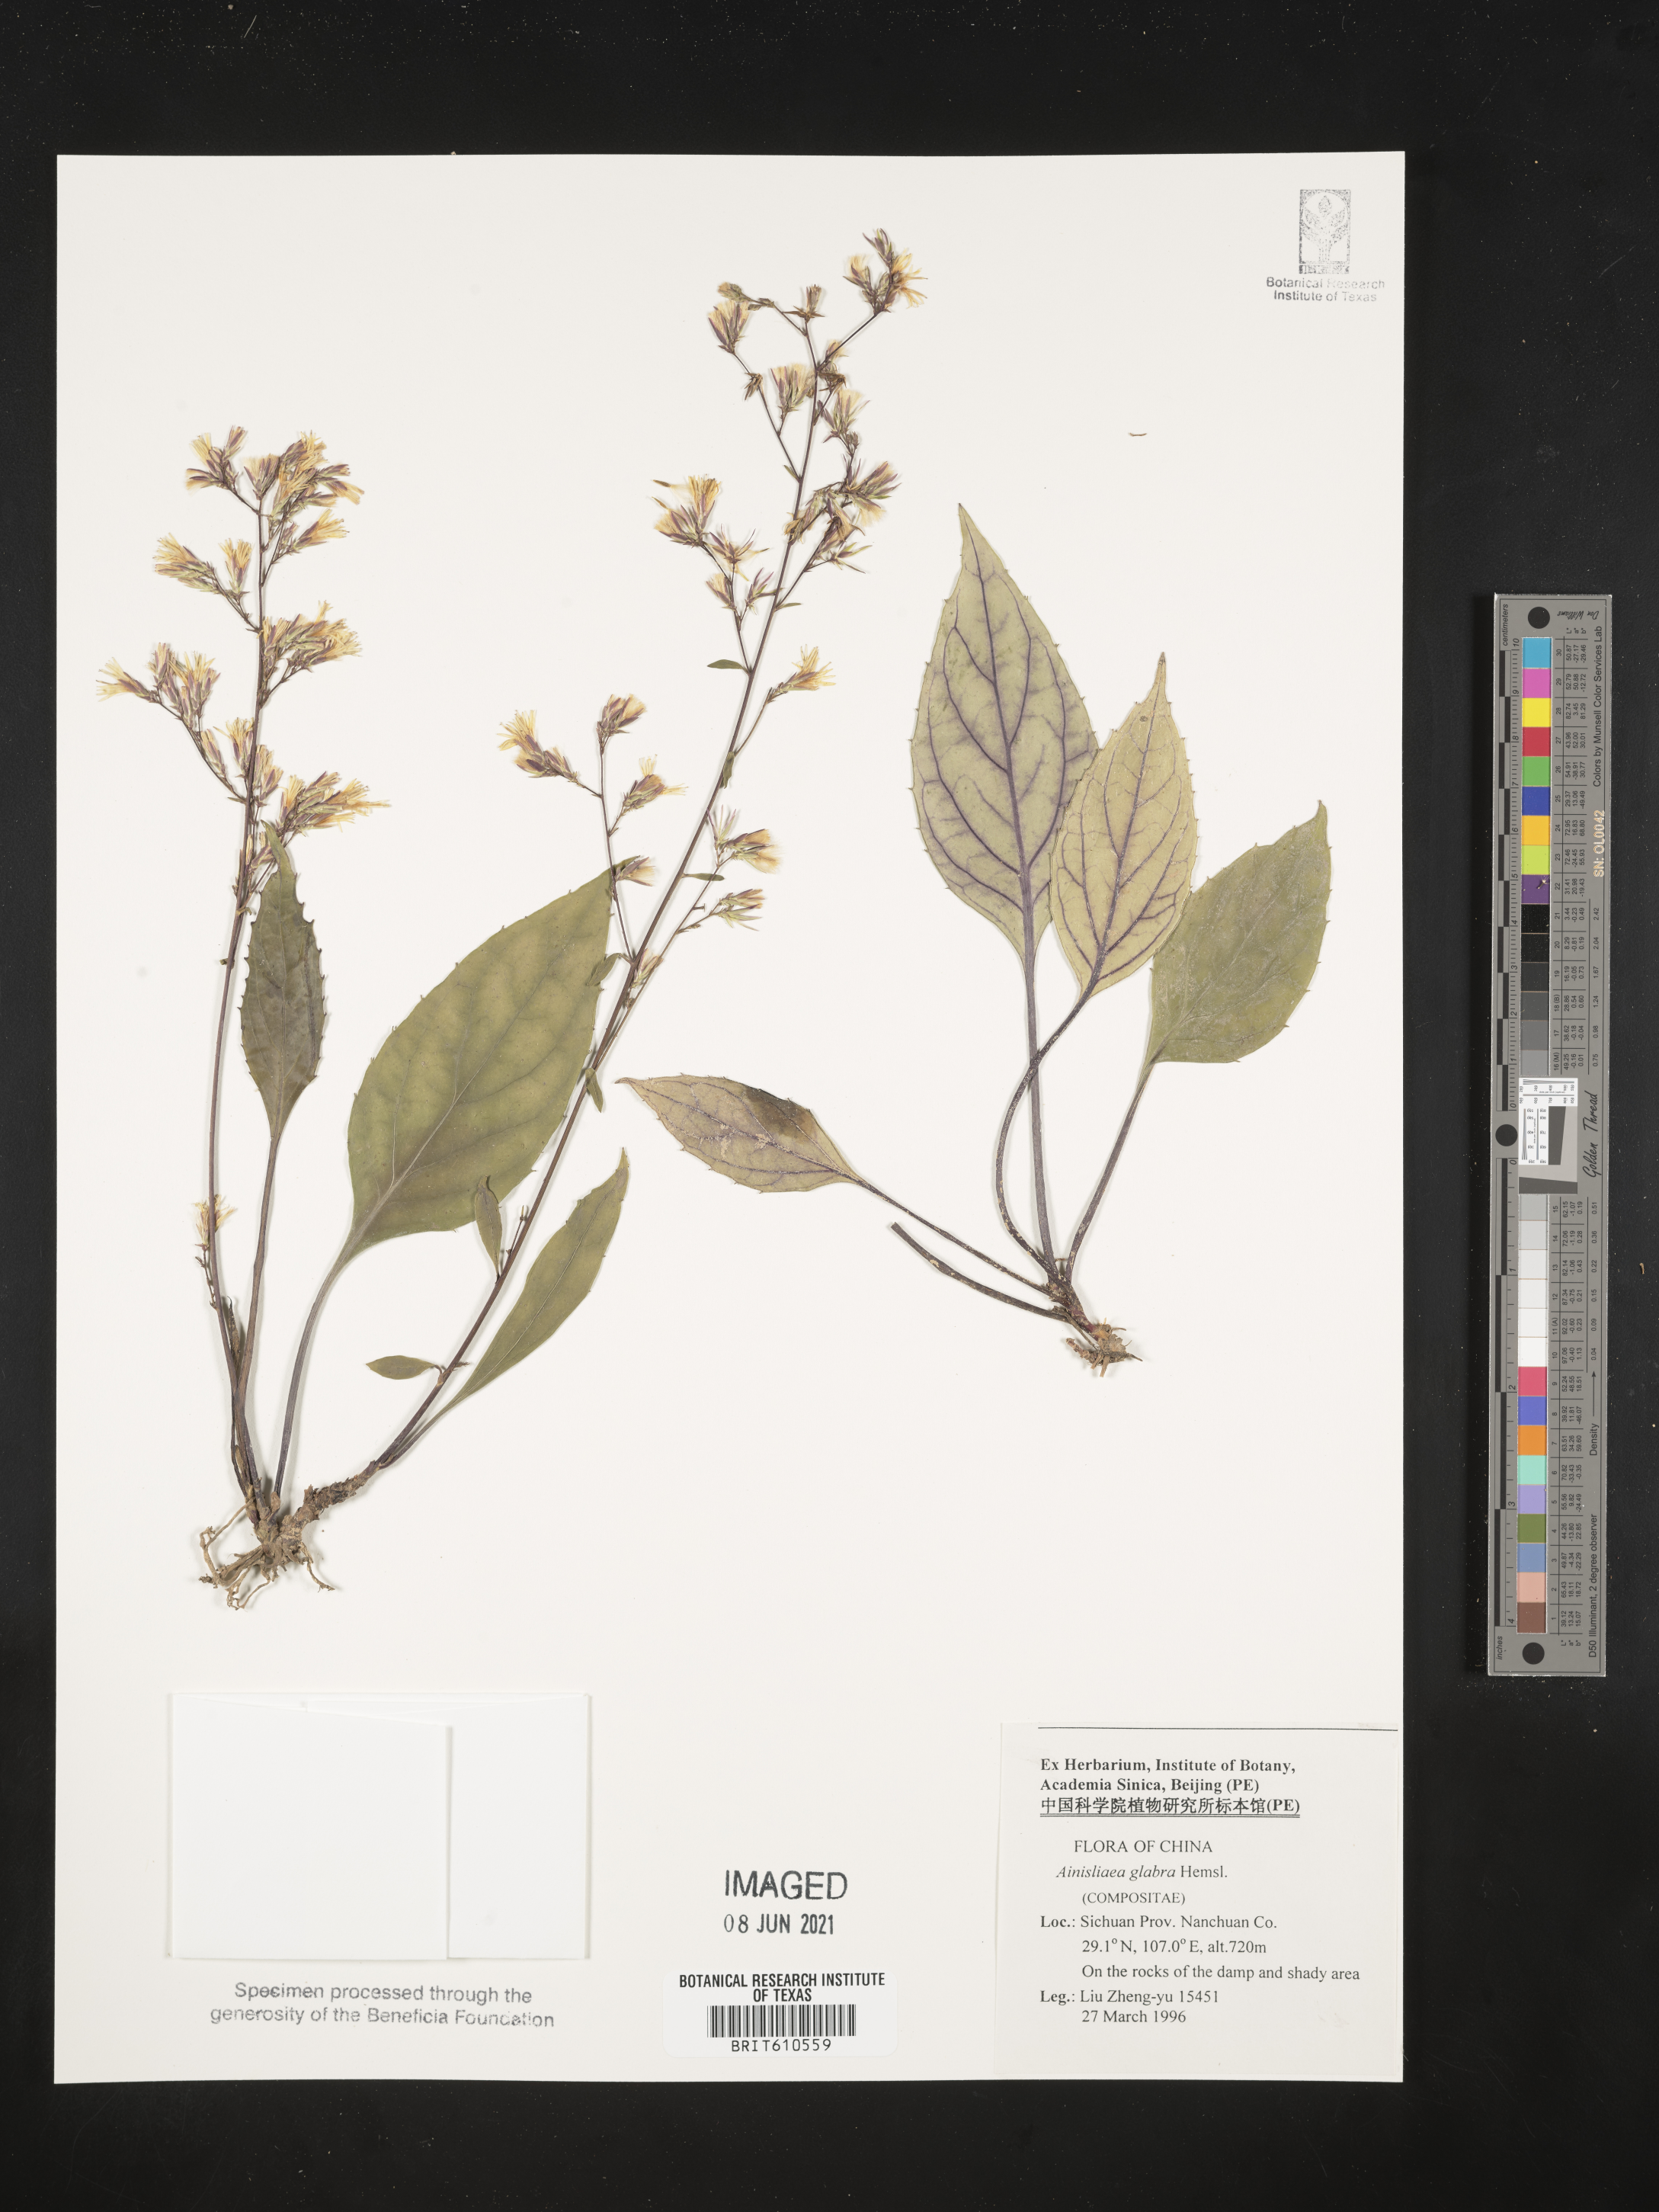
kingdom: Plantae
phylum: Tracheophyta
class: Magnoliopsida
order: Asterales
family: Asteraceae
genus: Ainsliaea
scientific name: Ainsliaea glabra
